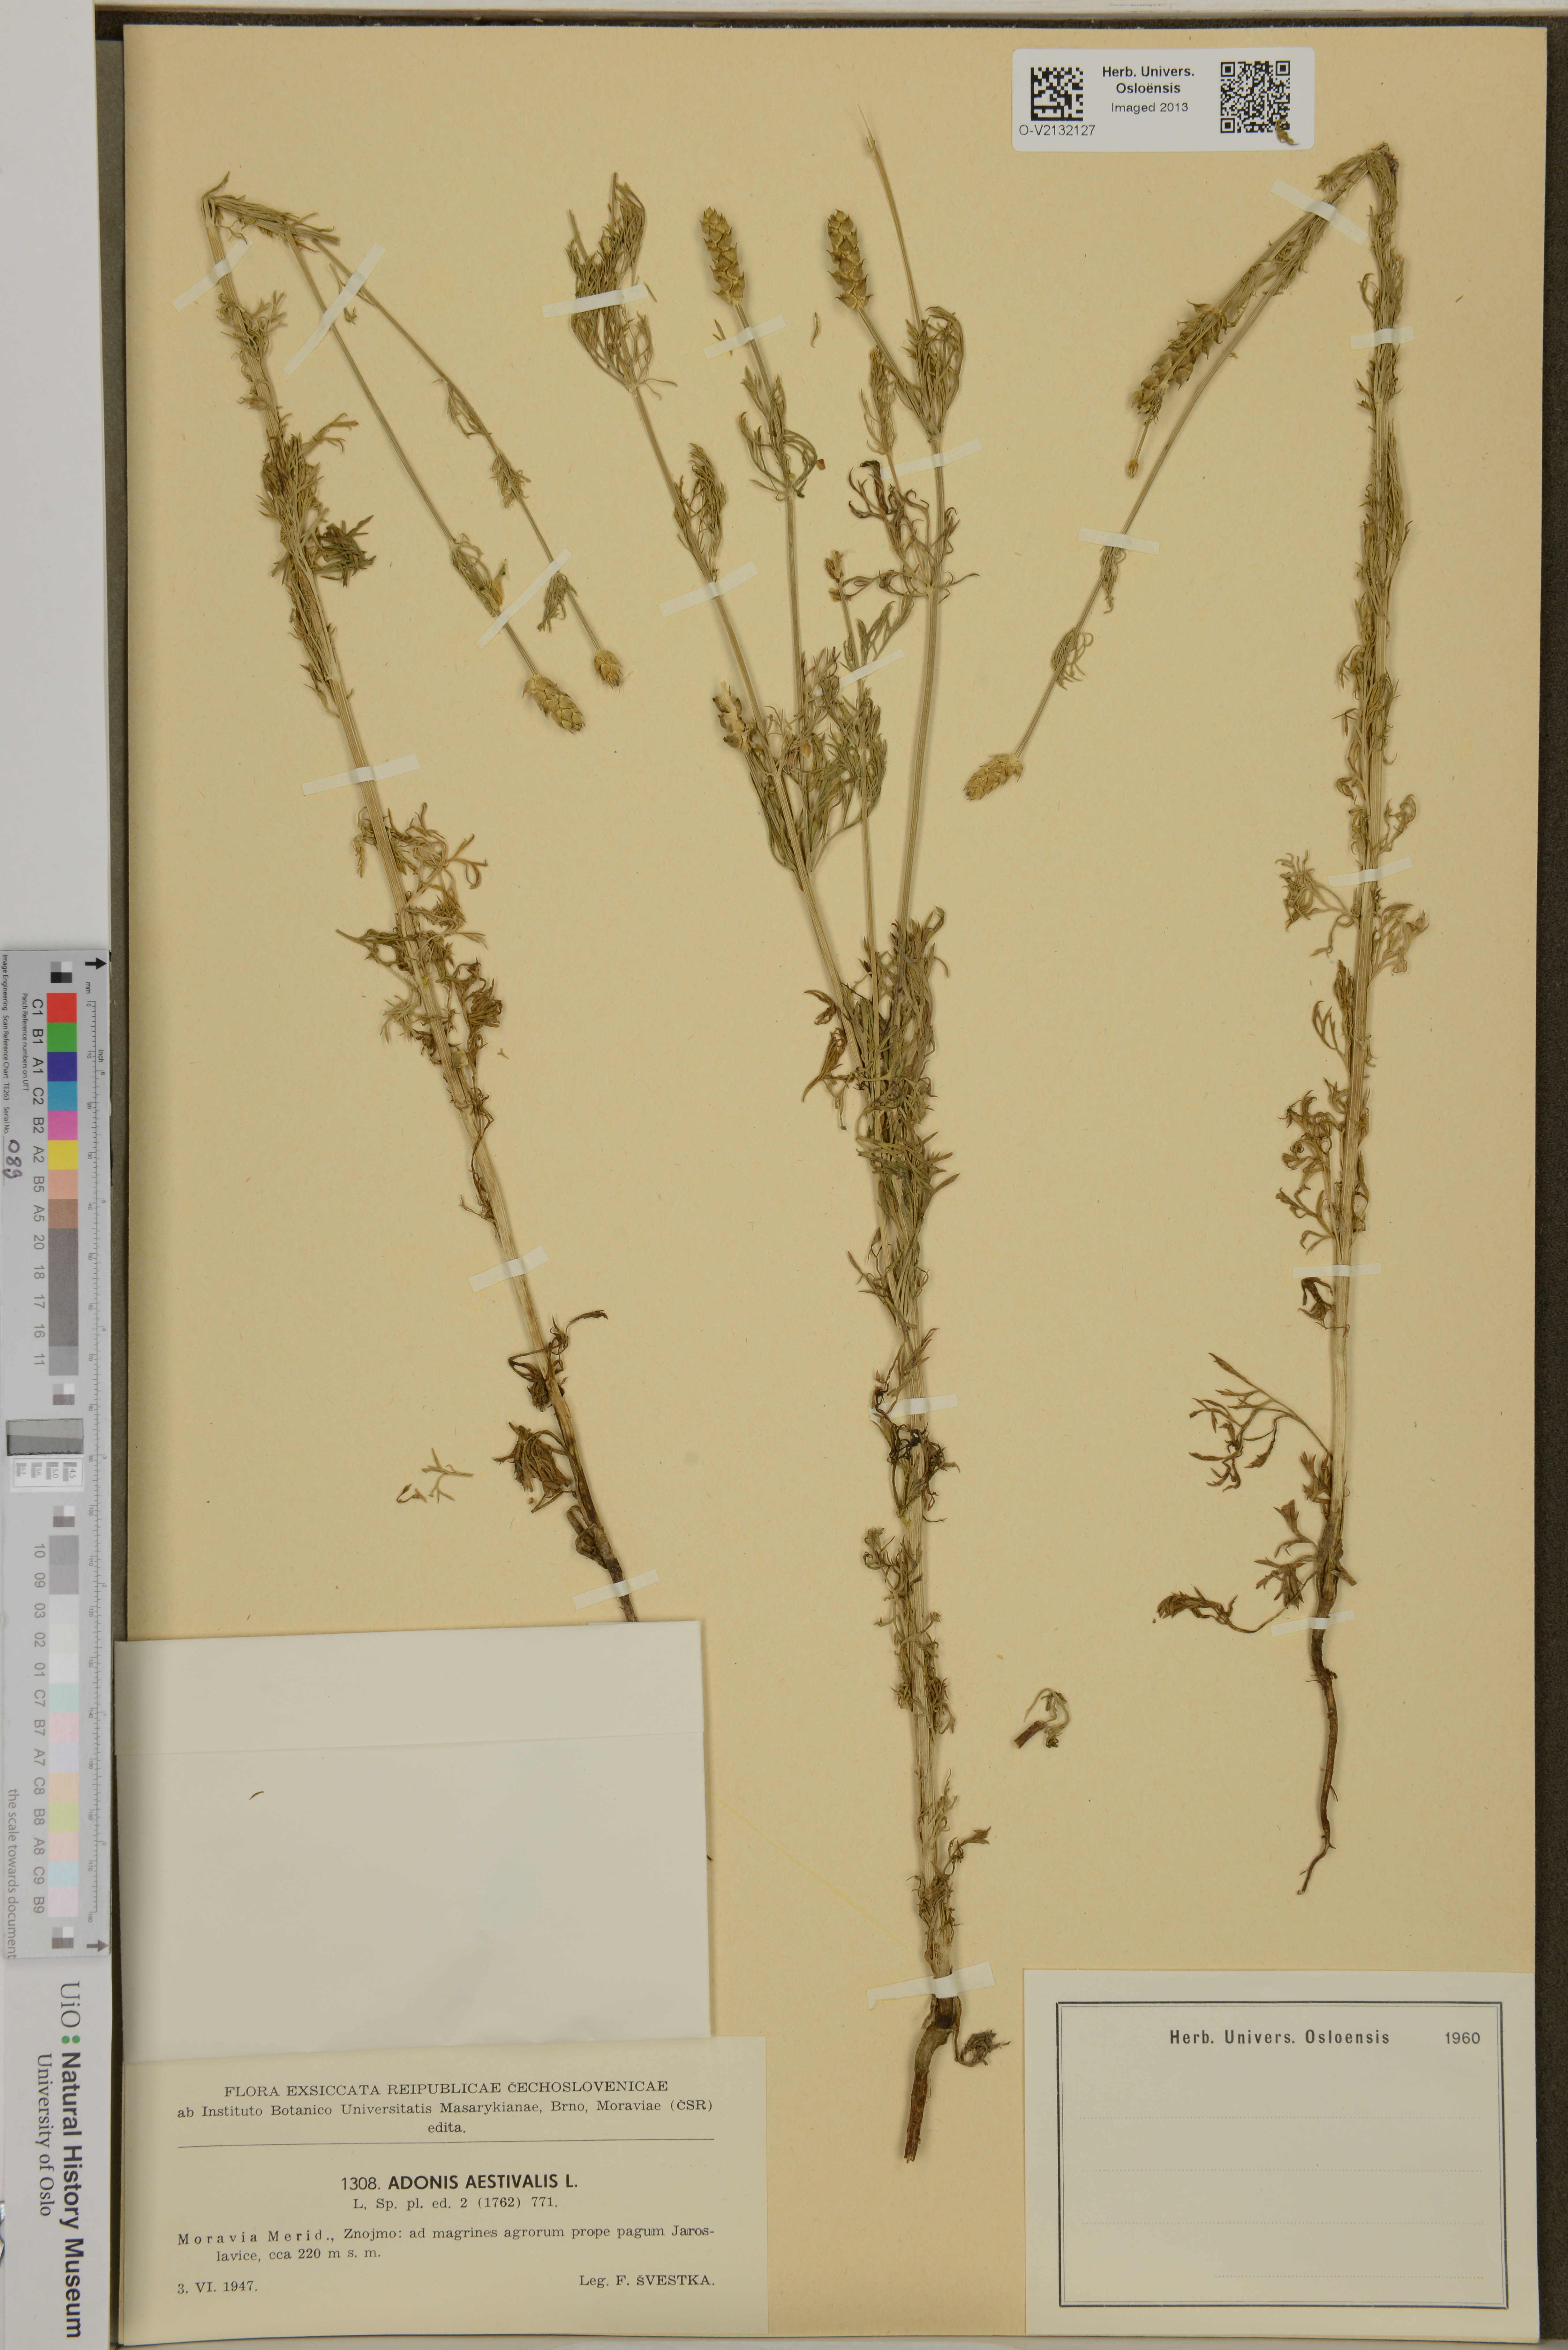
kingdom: Plantae
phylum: Tracheophyta
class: Magnoliopsida
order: Ranunculales
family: Ranunculaceae
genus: Adonis
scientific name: Adonis aestivalis
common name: Summer pheasant's-eye
